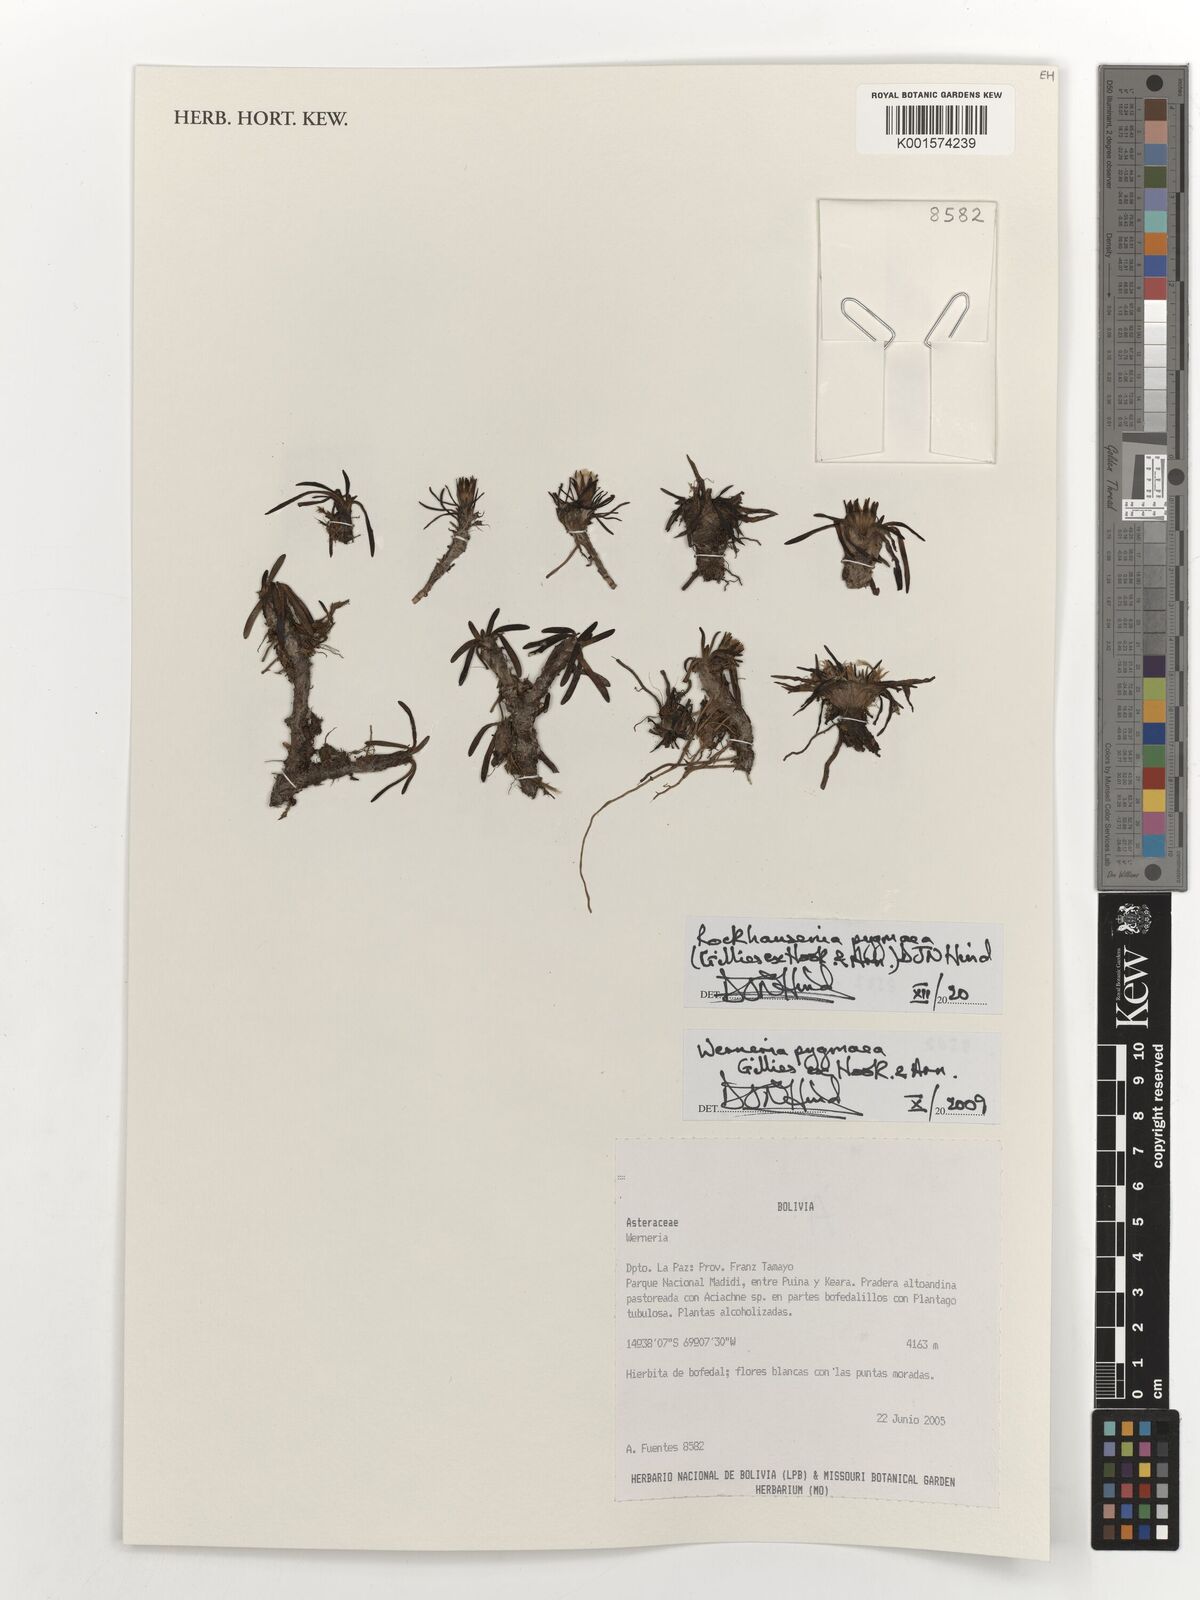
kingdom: Plantae
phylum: Tracheophyta
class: Magnoliopsida
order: Asterales
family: Asteraceae
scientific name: Asteraceae
